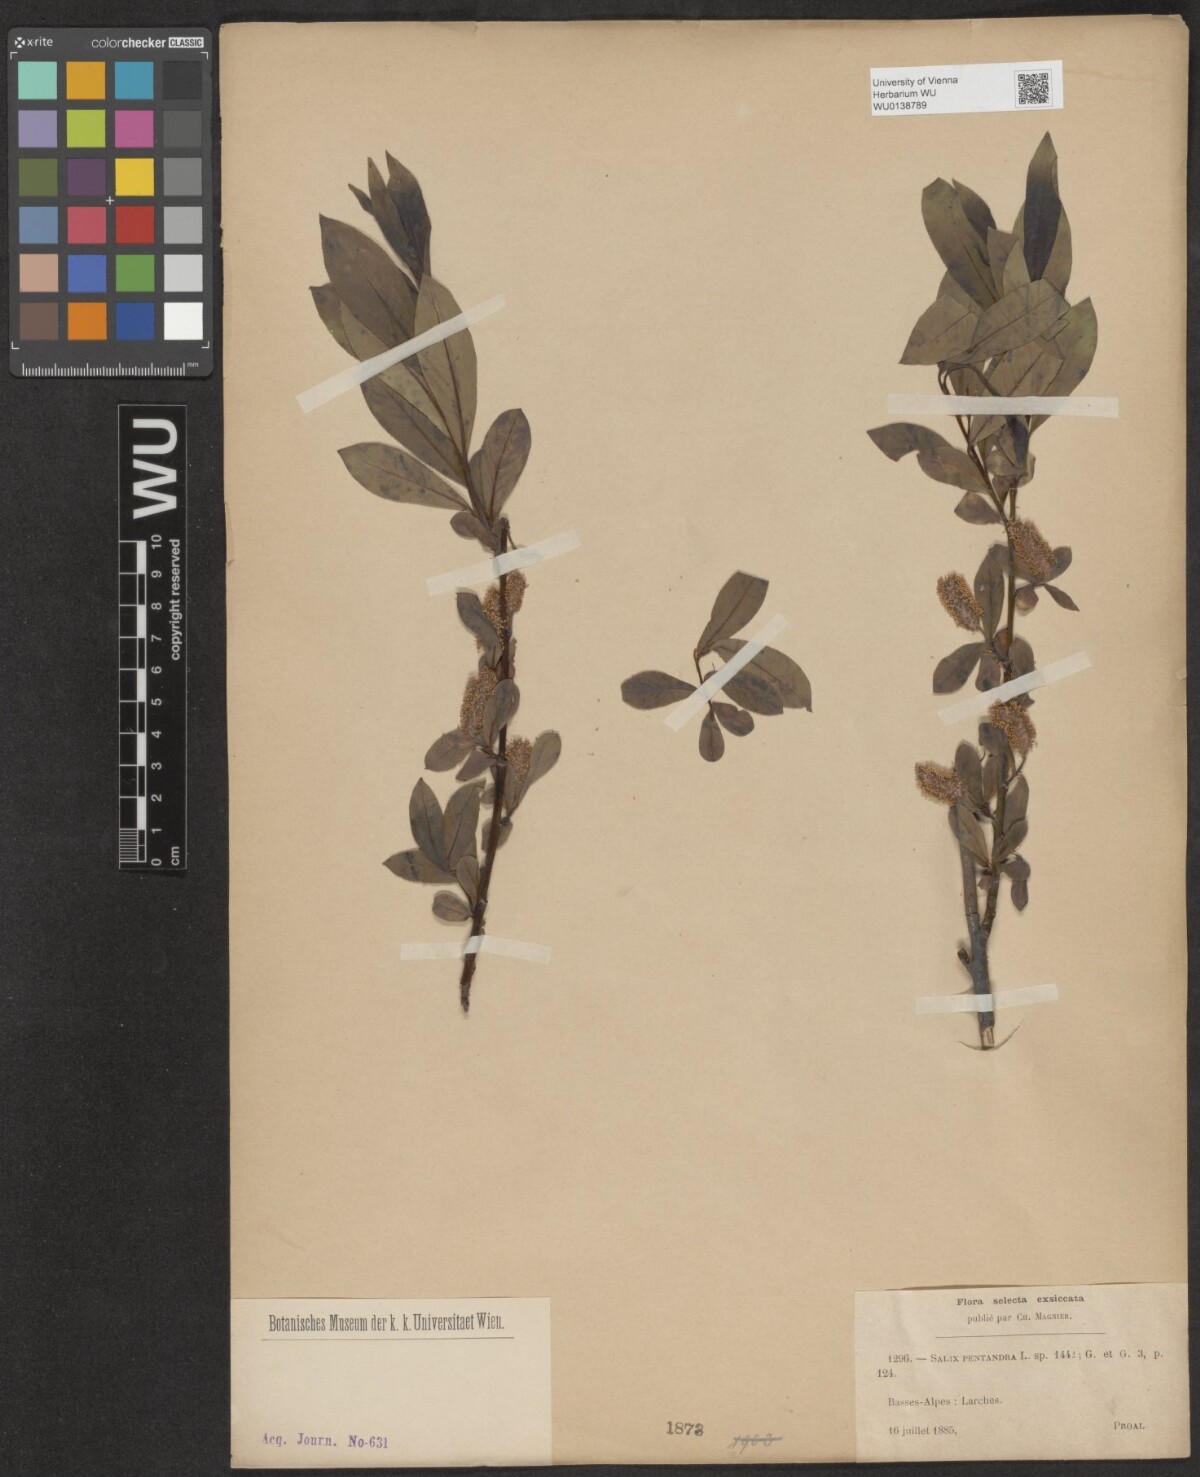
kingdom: Plantae
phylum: Tracheophyta
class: Magnoliopsida
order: Malpighiales
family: Salicaceae
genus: Salix
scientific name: Salix pentandra
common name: Bay willow
